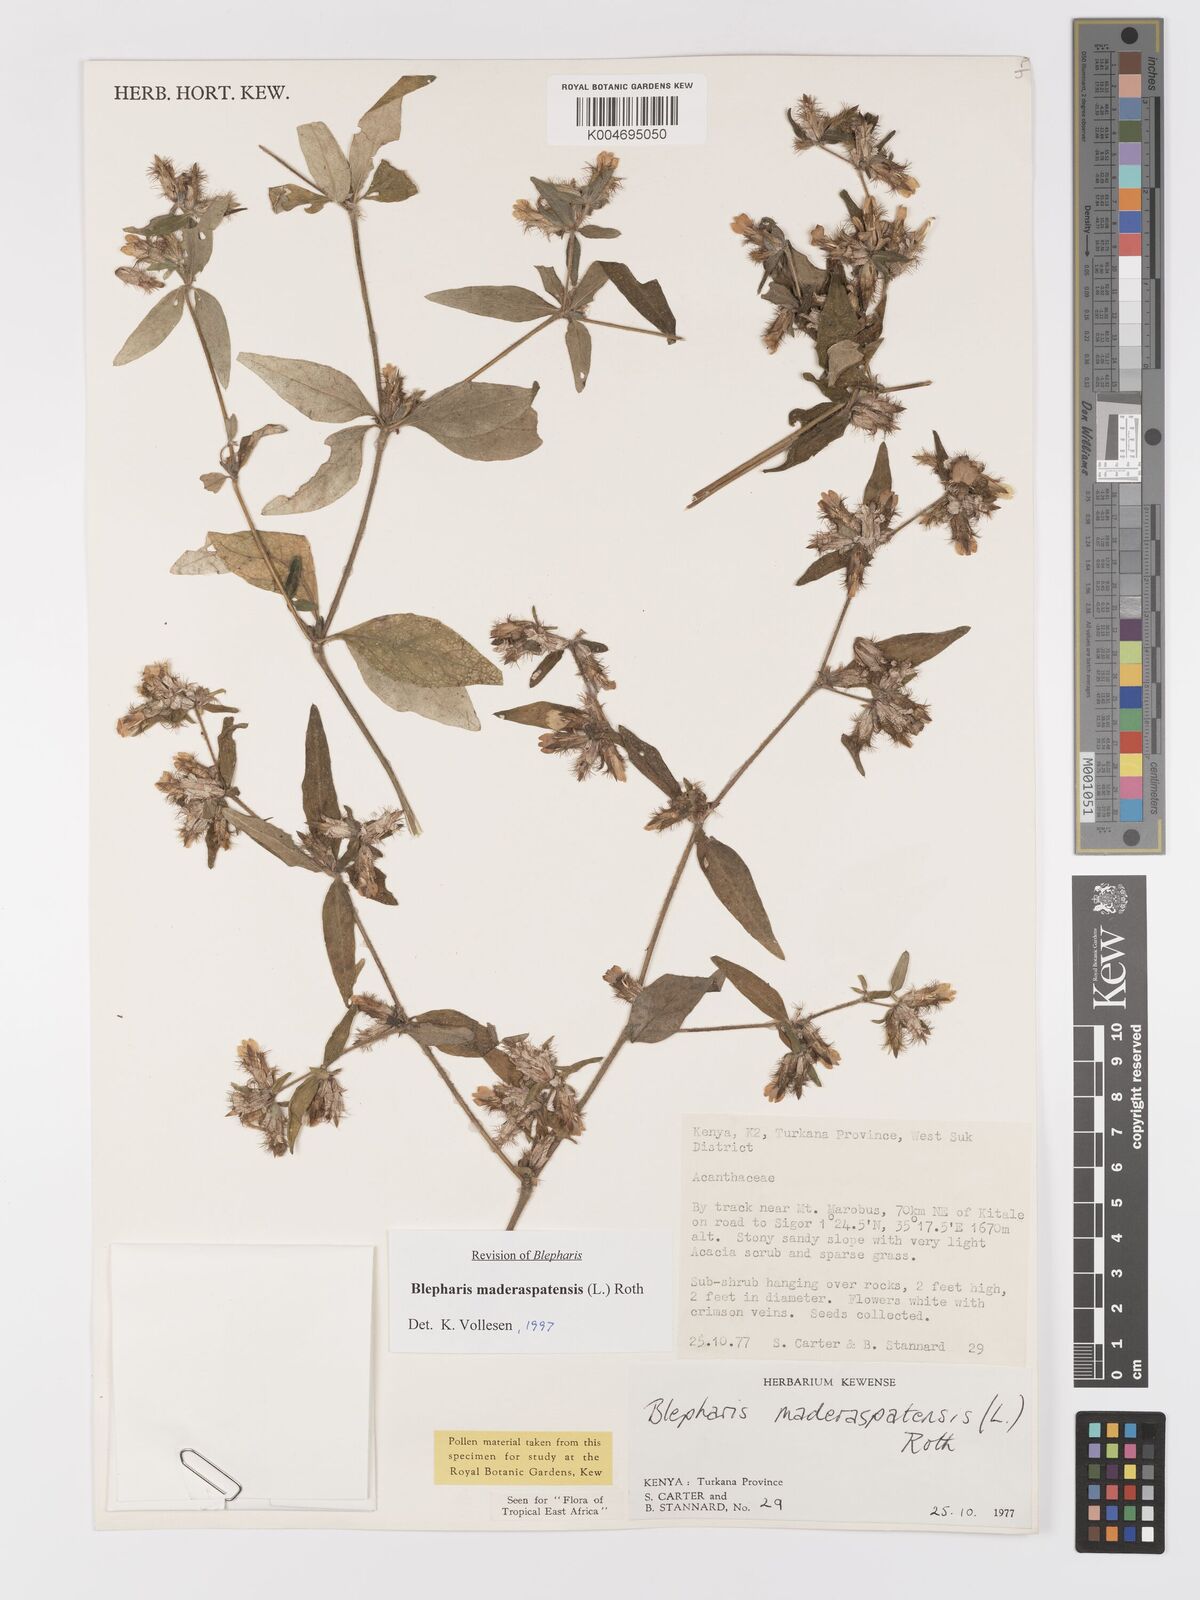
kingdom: Plantae
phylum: Tracheophyta
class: Magnoliopsida
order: Lamiales
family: Acanthaceae
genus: Blepharis
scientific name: Blepharis maderaspatensis
